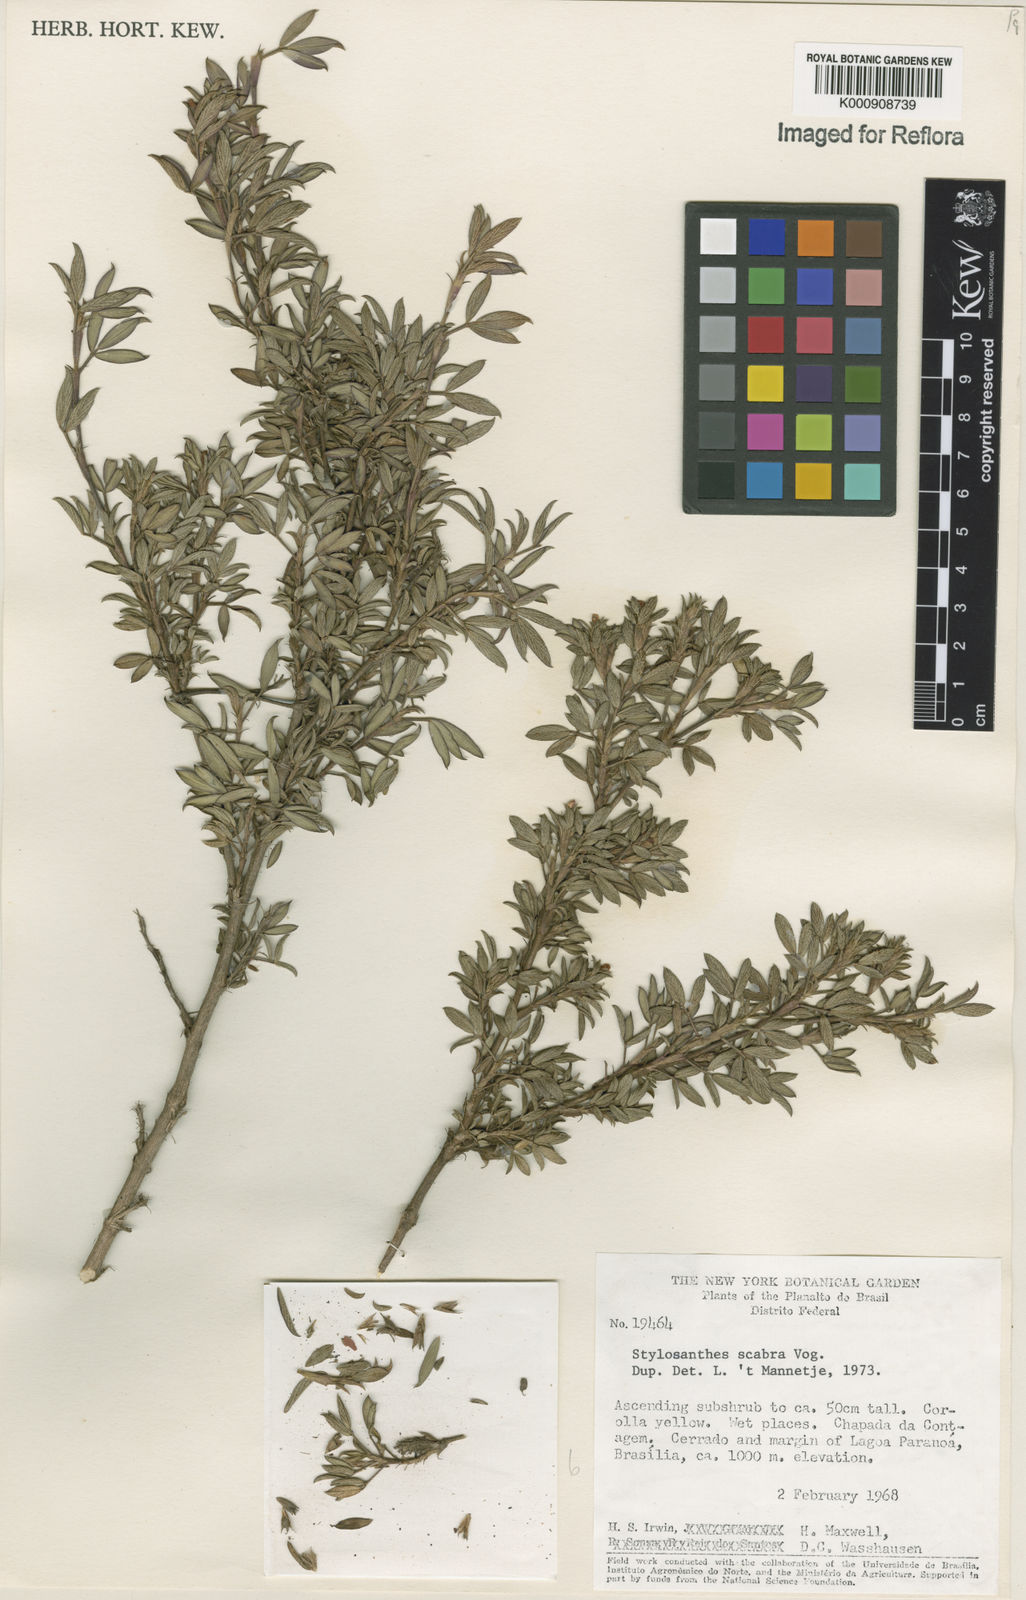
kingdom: Plantae
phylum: Tracheophyta
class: Magnoliopsida
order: Fabales
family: Fabaceae
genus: Stylosanthes
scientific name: Stylosanthes scabra
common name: Pencilflower
